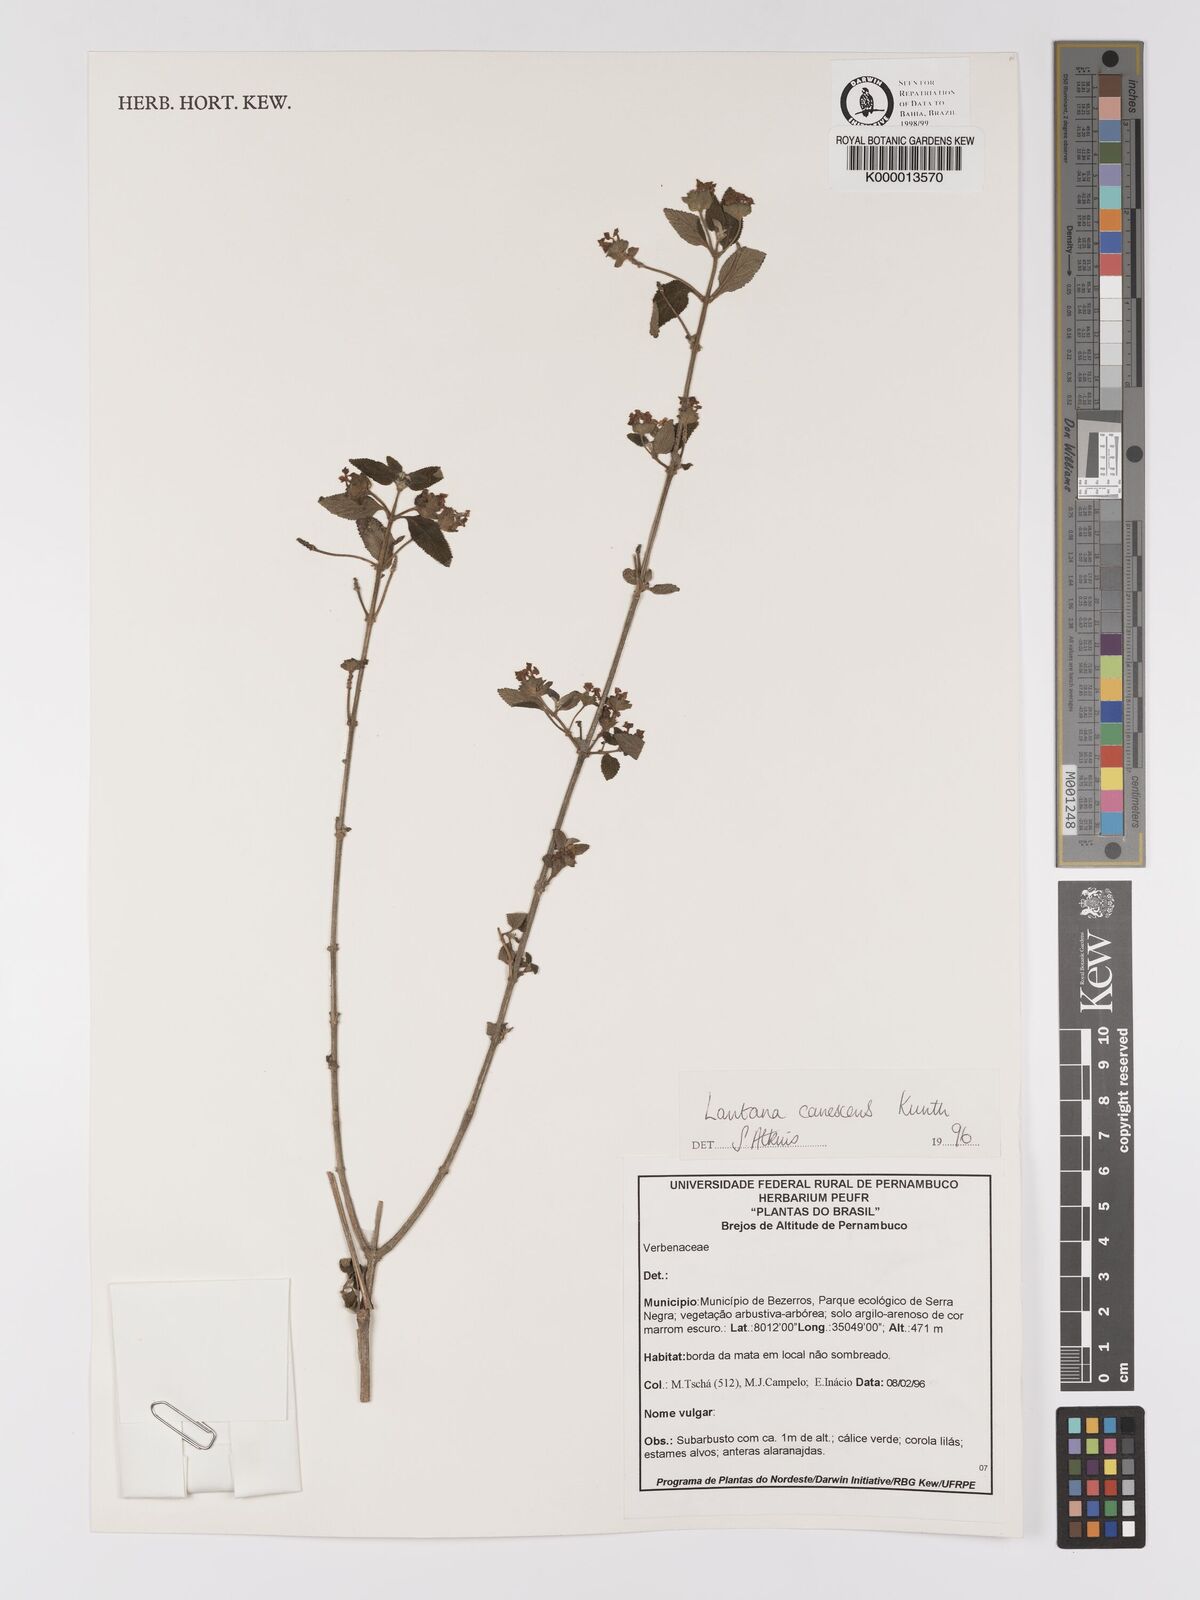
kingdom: Plantae
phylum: Tracheophyta
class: Magnoliopsida
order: Lamiales
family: Verbenaceae
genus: Lantana
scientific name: Lantana canescens
